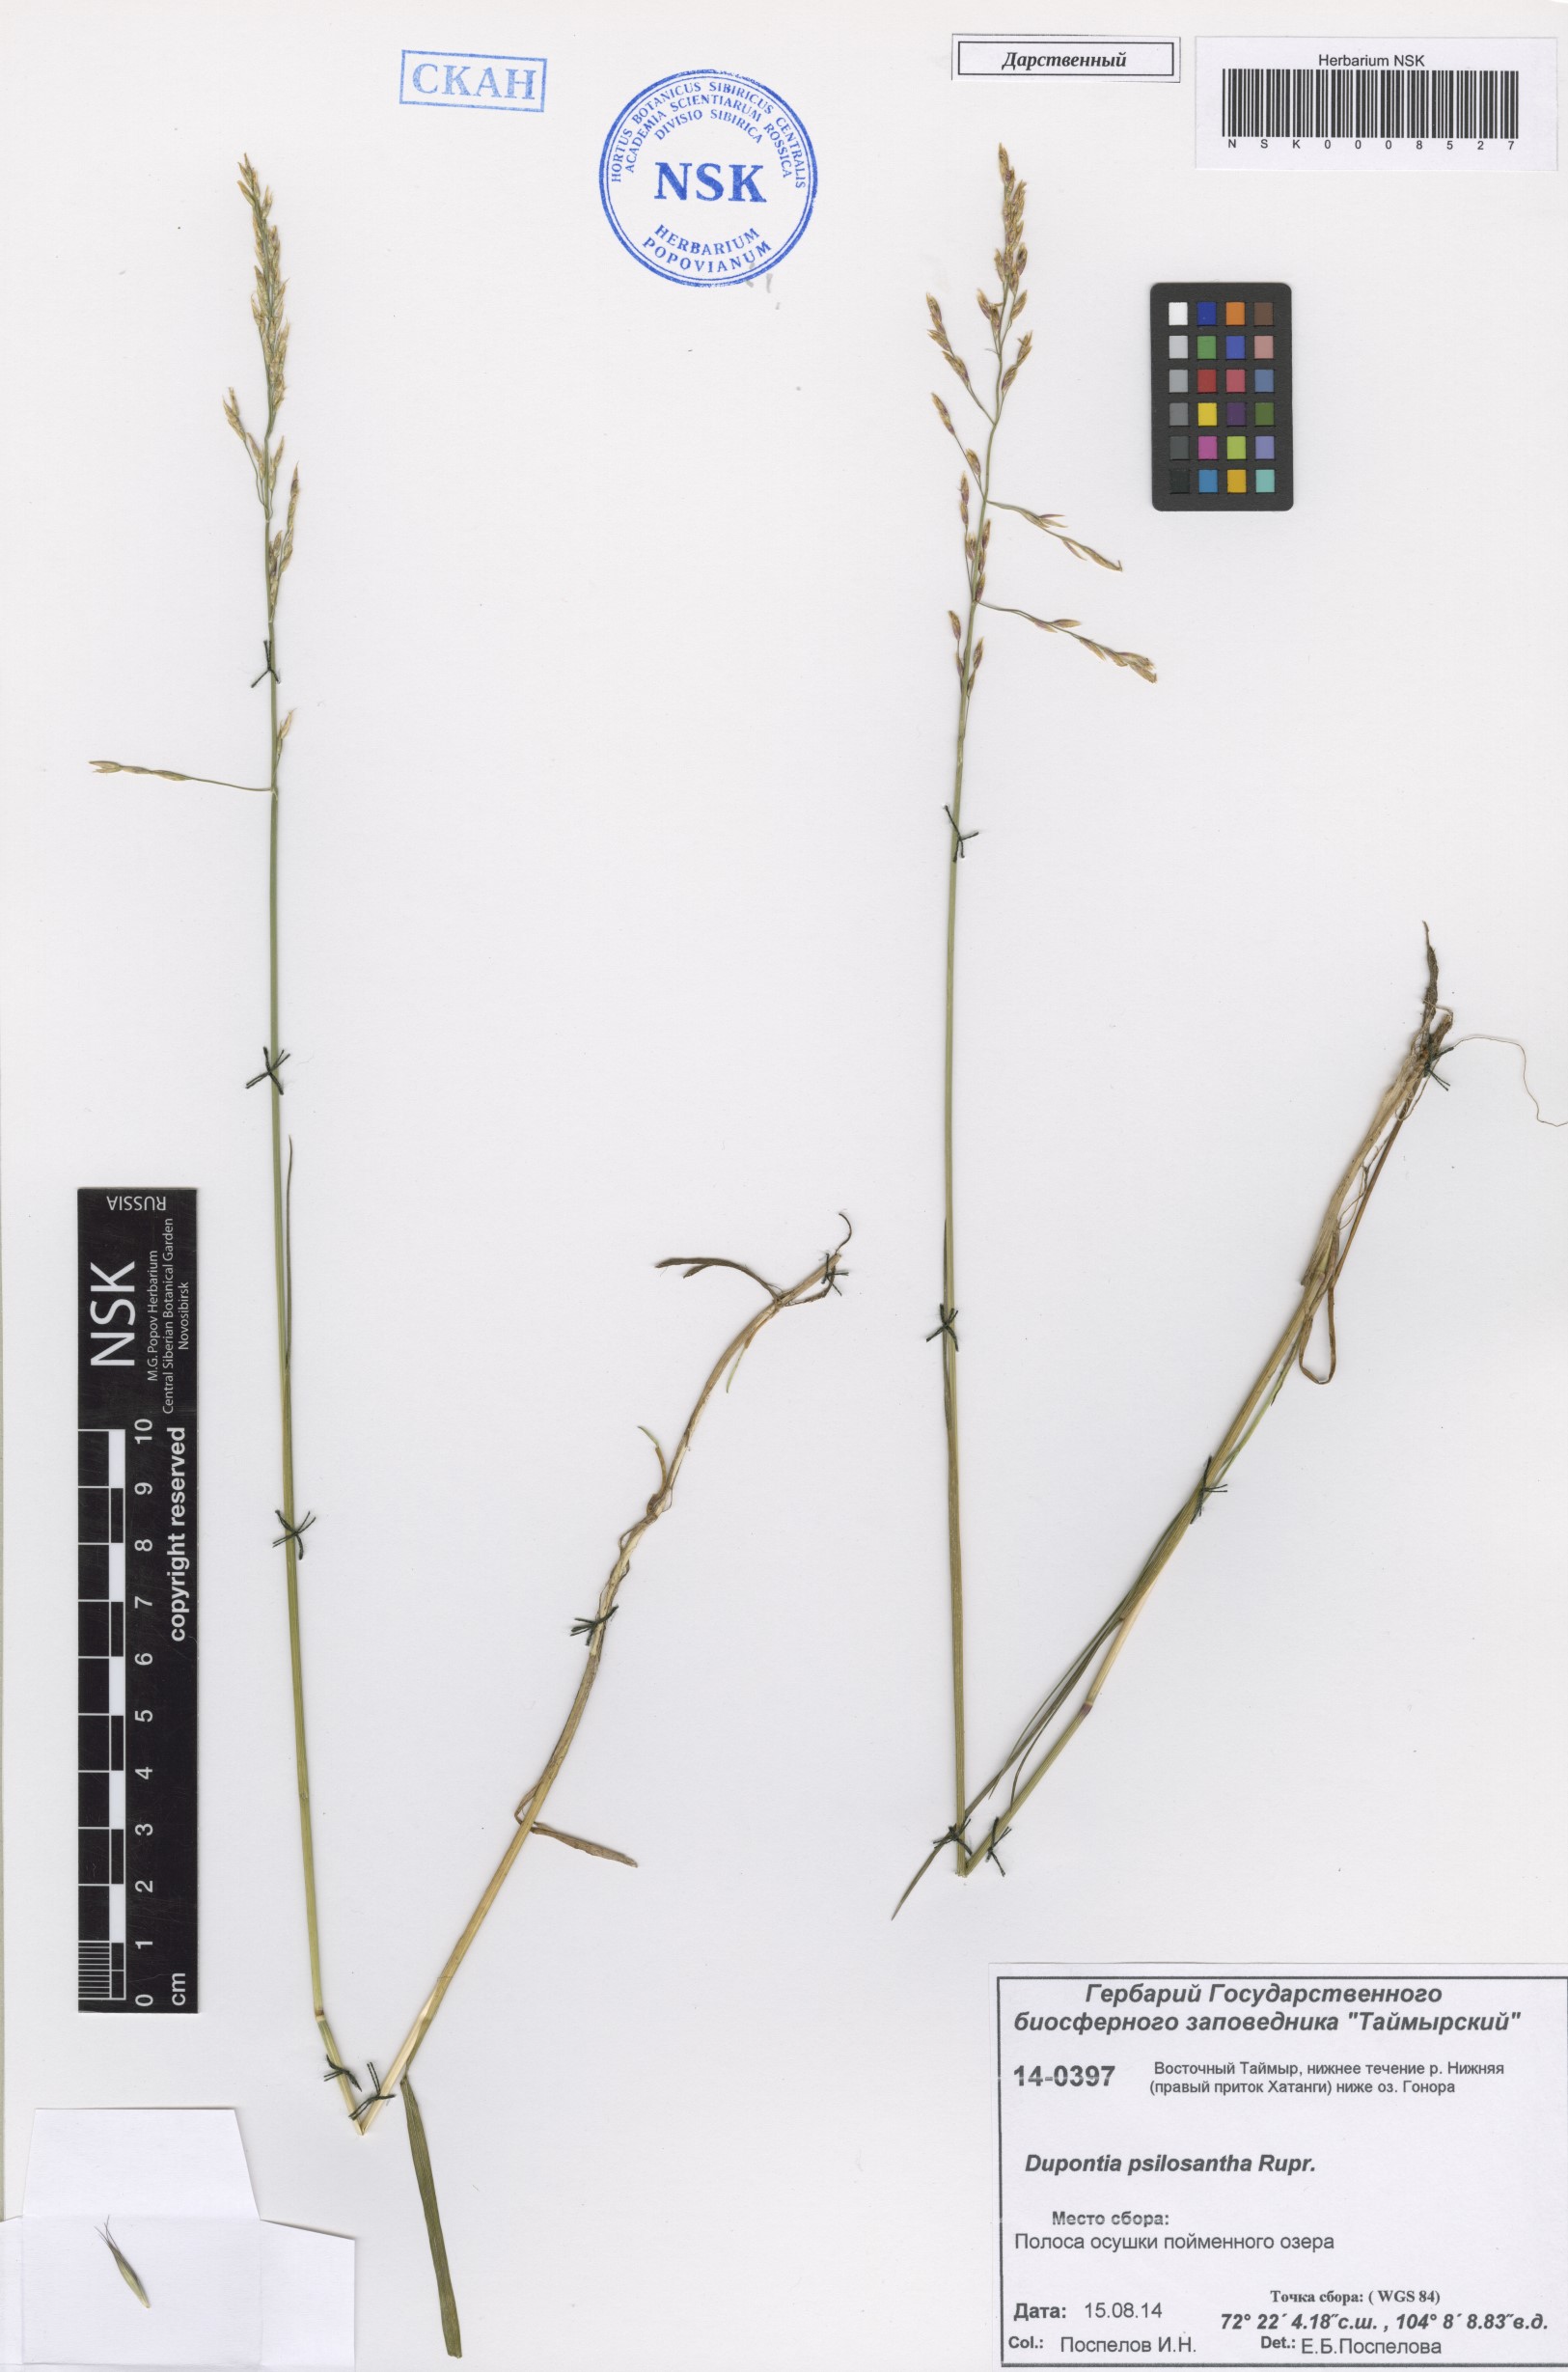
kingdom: Plantae
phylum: Tracheophyta
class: Liliopsida
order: Poales
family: Poaceae
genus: Dupontia
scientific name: Dupontia fisheri
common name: Tundra grass
